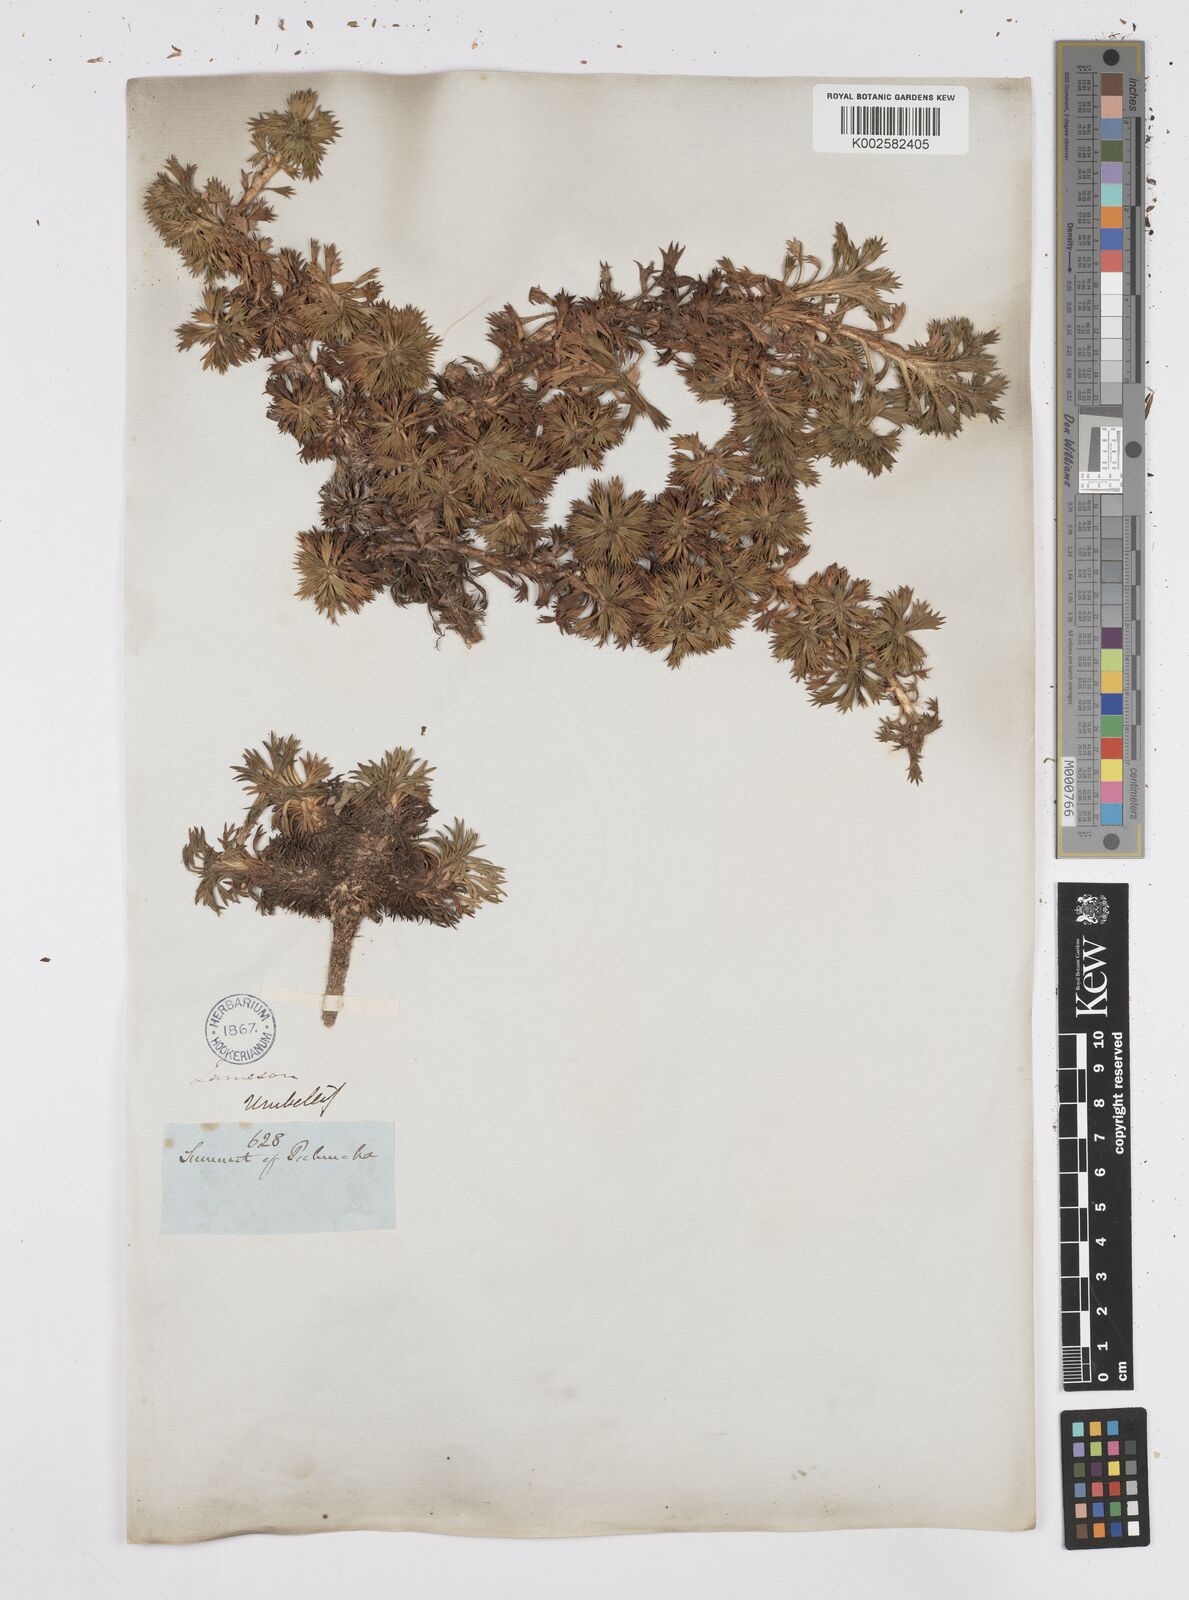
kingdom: Plantae
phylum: Tracheophyta
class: Magnoliopsida
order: Apiales
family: Apiaceae
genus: Azorella
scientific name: Azorella pedunculata
